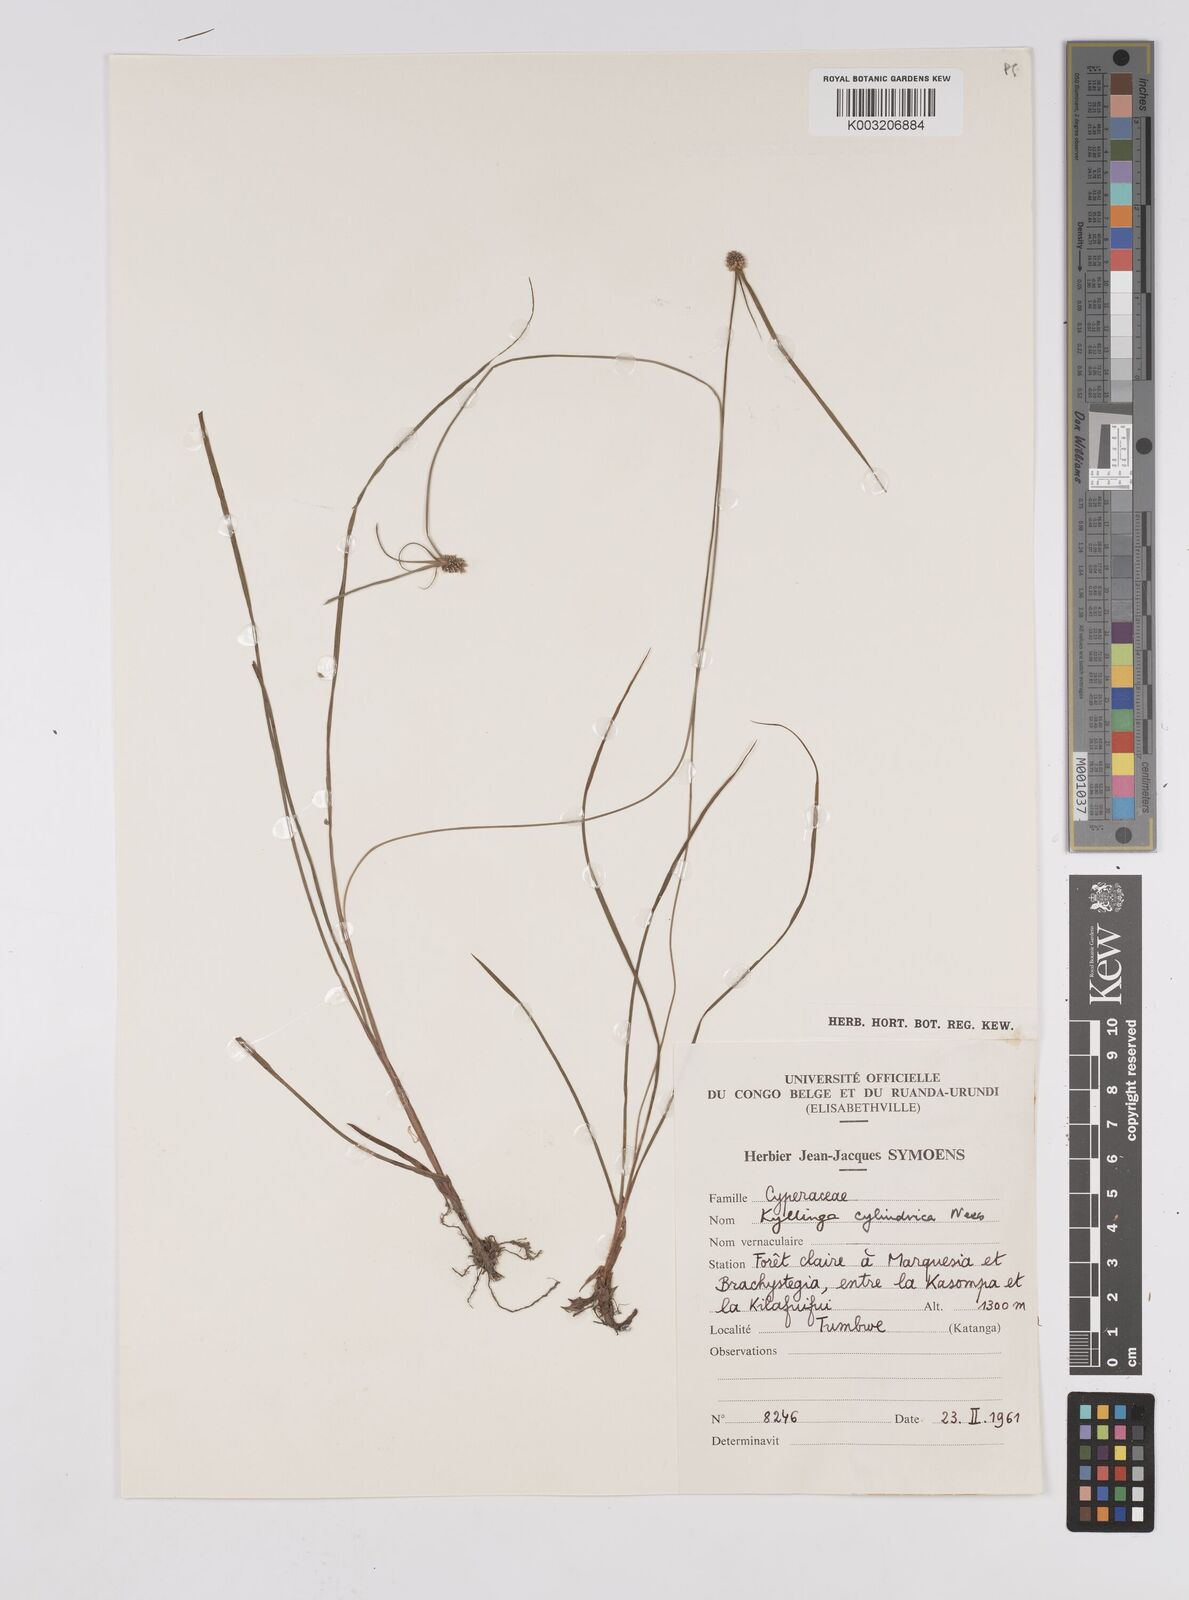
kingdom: Plantae
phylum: Tracheophyta
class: Liliopsida
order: Poales
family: Cyperaceae
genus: Cyperus
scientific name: Cyperus odoratus
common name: Fragrant flatsedge
